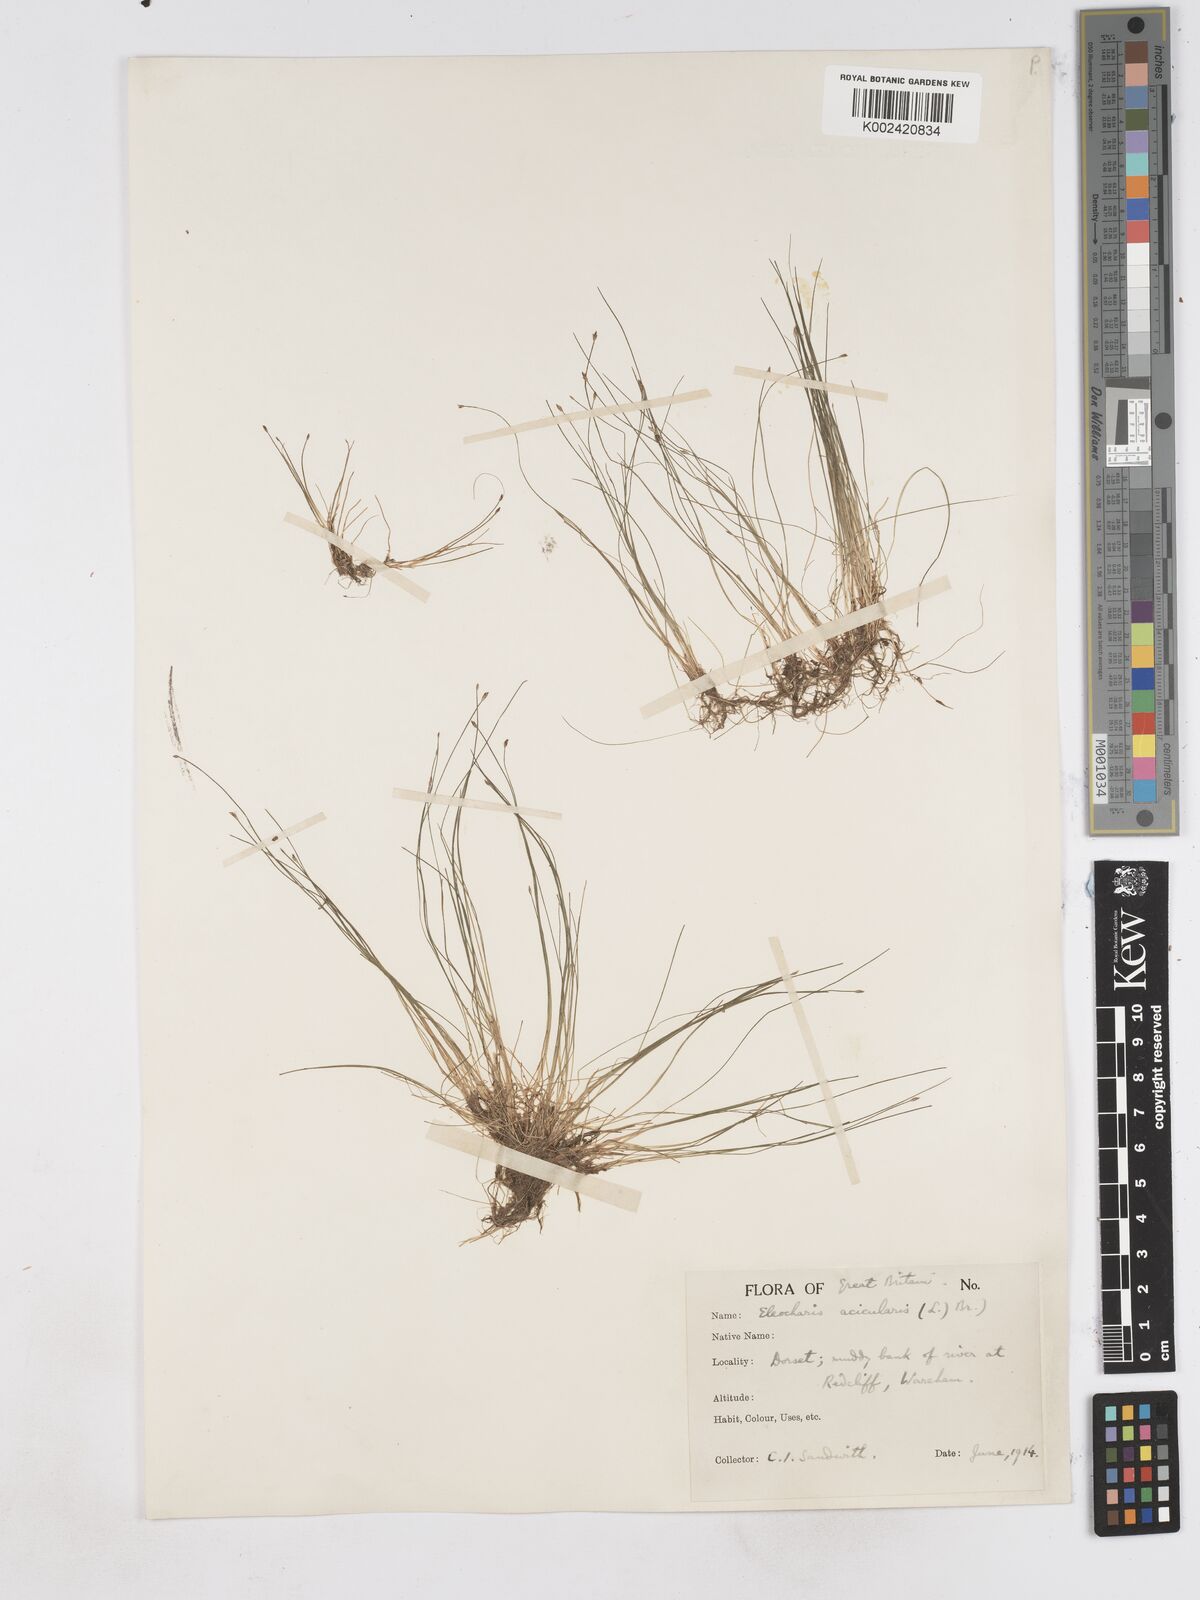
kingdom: Plantae
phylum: Tracheophyta
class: Liliopsida
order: Poales
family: Cyperaceae
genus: Eleocharis
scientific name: Eleocharis acicularis
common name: Needle spike-rush
